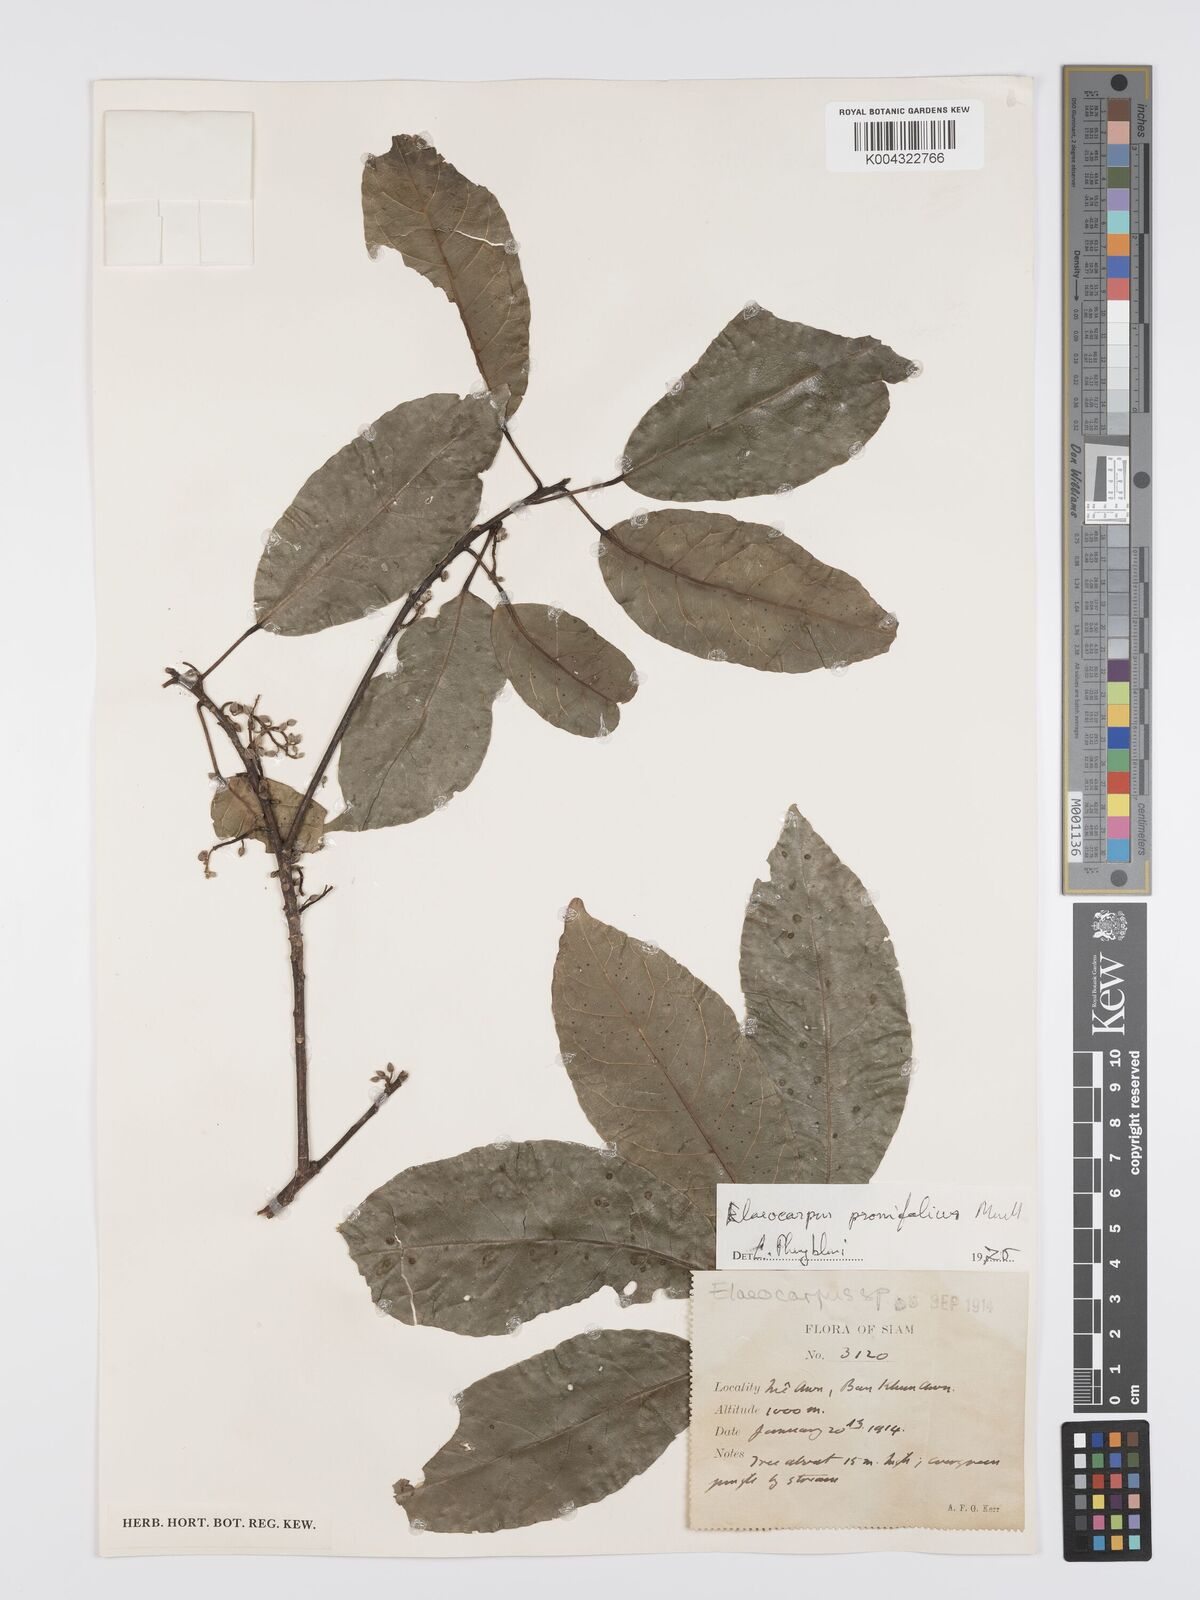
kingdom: Plantae
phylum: Tracheophyta
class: Magnoliopsida
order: Oxalidales
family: Elaeocarpaceae
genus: Elaeocarpus
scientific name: Elaeocarpus
